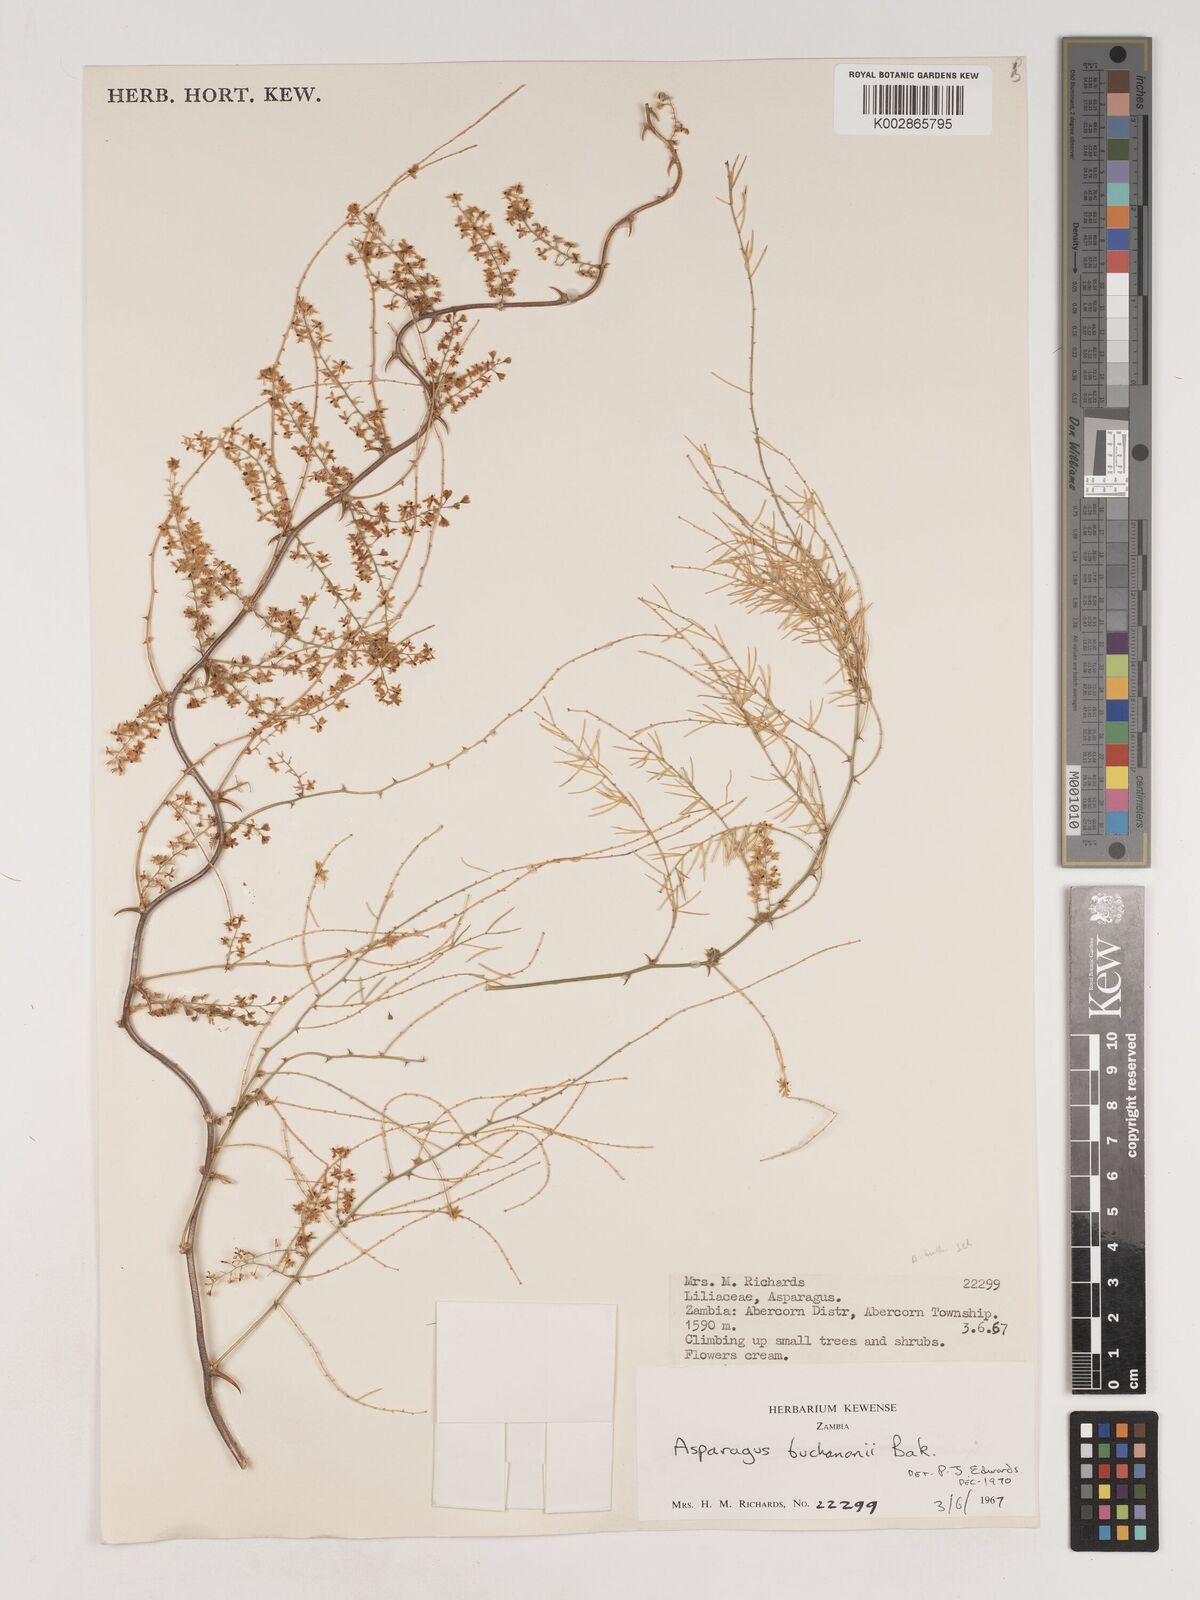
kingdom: Plantae
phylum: Tracheophyta
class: Liliopsida
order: Asparagales
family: Asparagaceae
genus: Asparagus
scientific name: Asparagus buchananii
